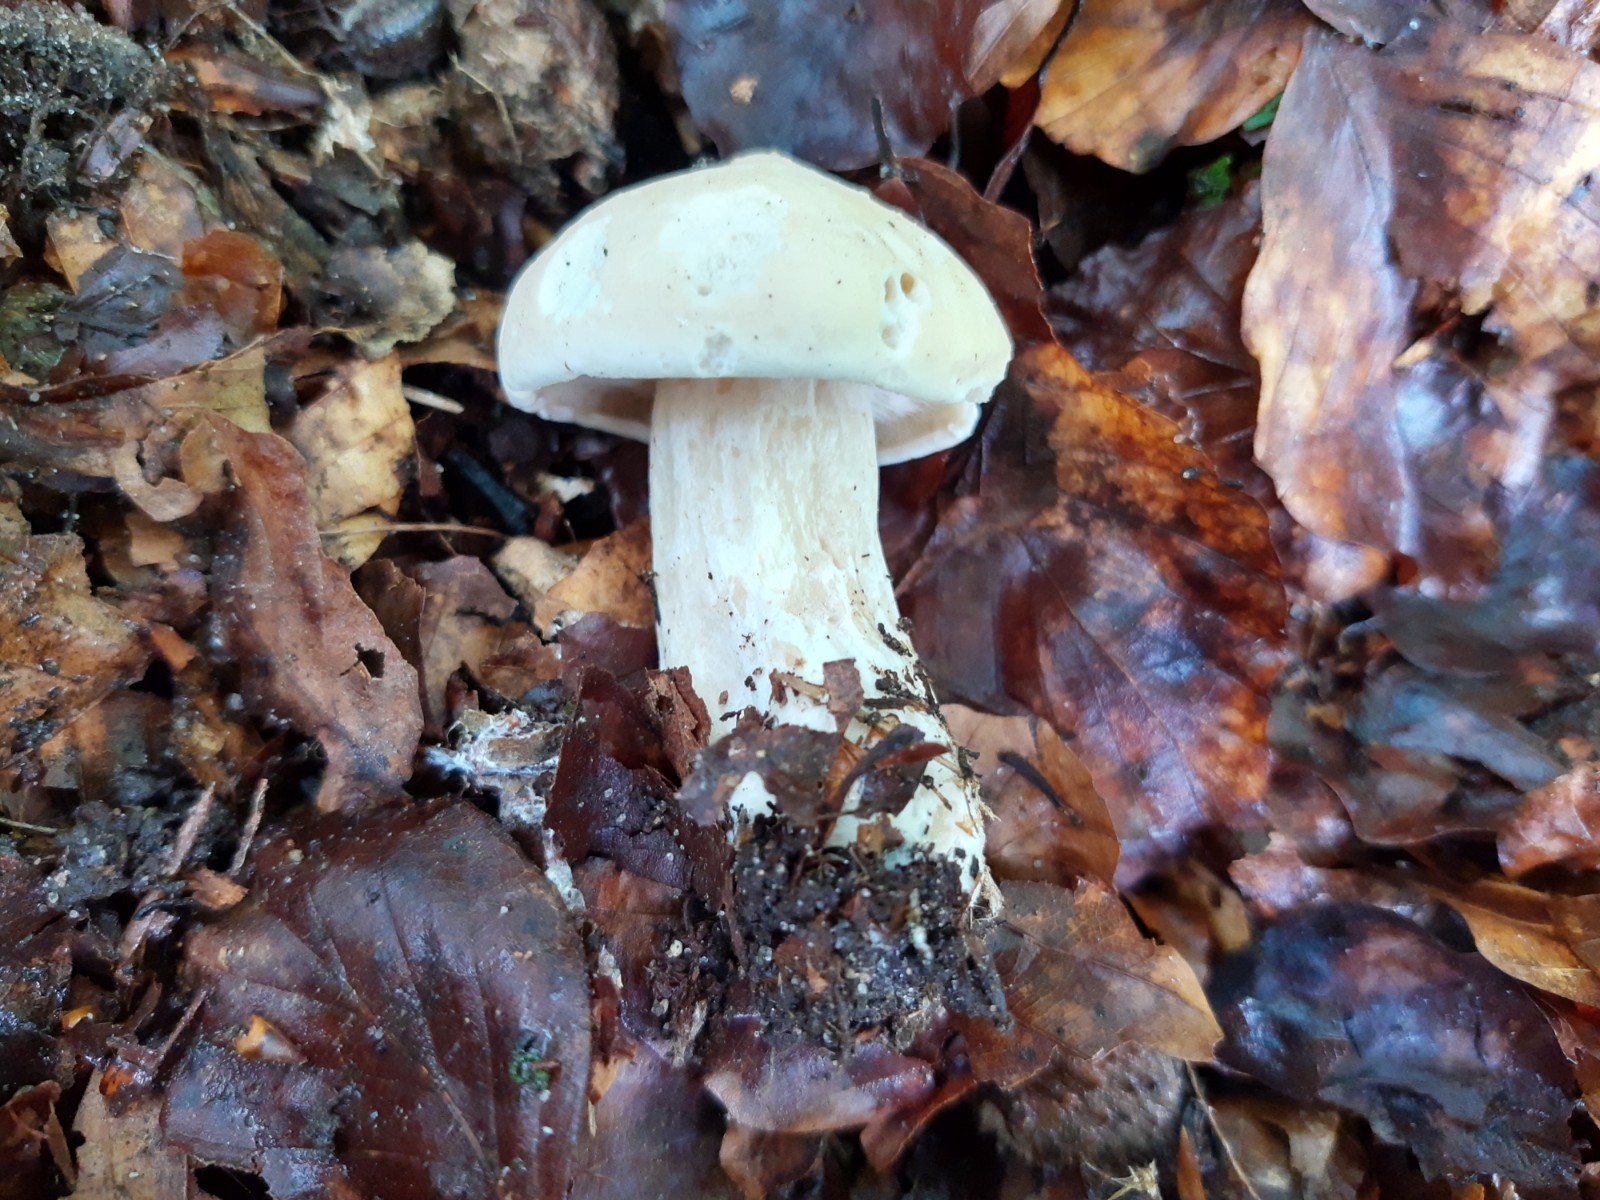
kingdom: Fungi
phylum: Basidiomycota
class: Agaricomycetes
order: Agaricales
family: Lyophyllaceae
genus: Calocybe
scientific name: Calocybe gambosa
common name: vårmusseron
